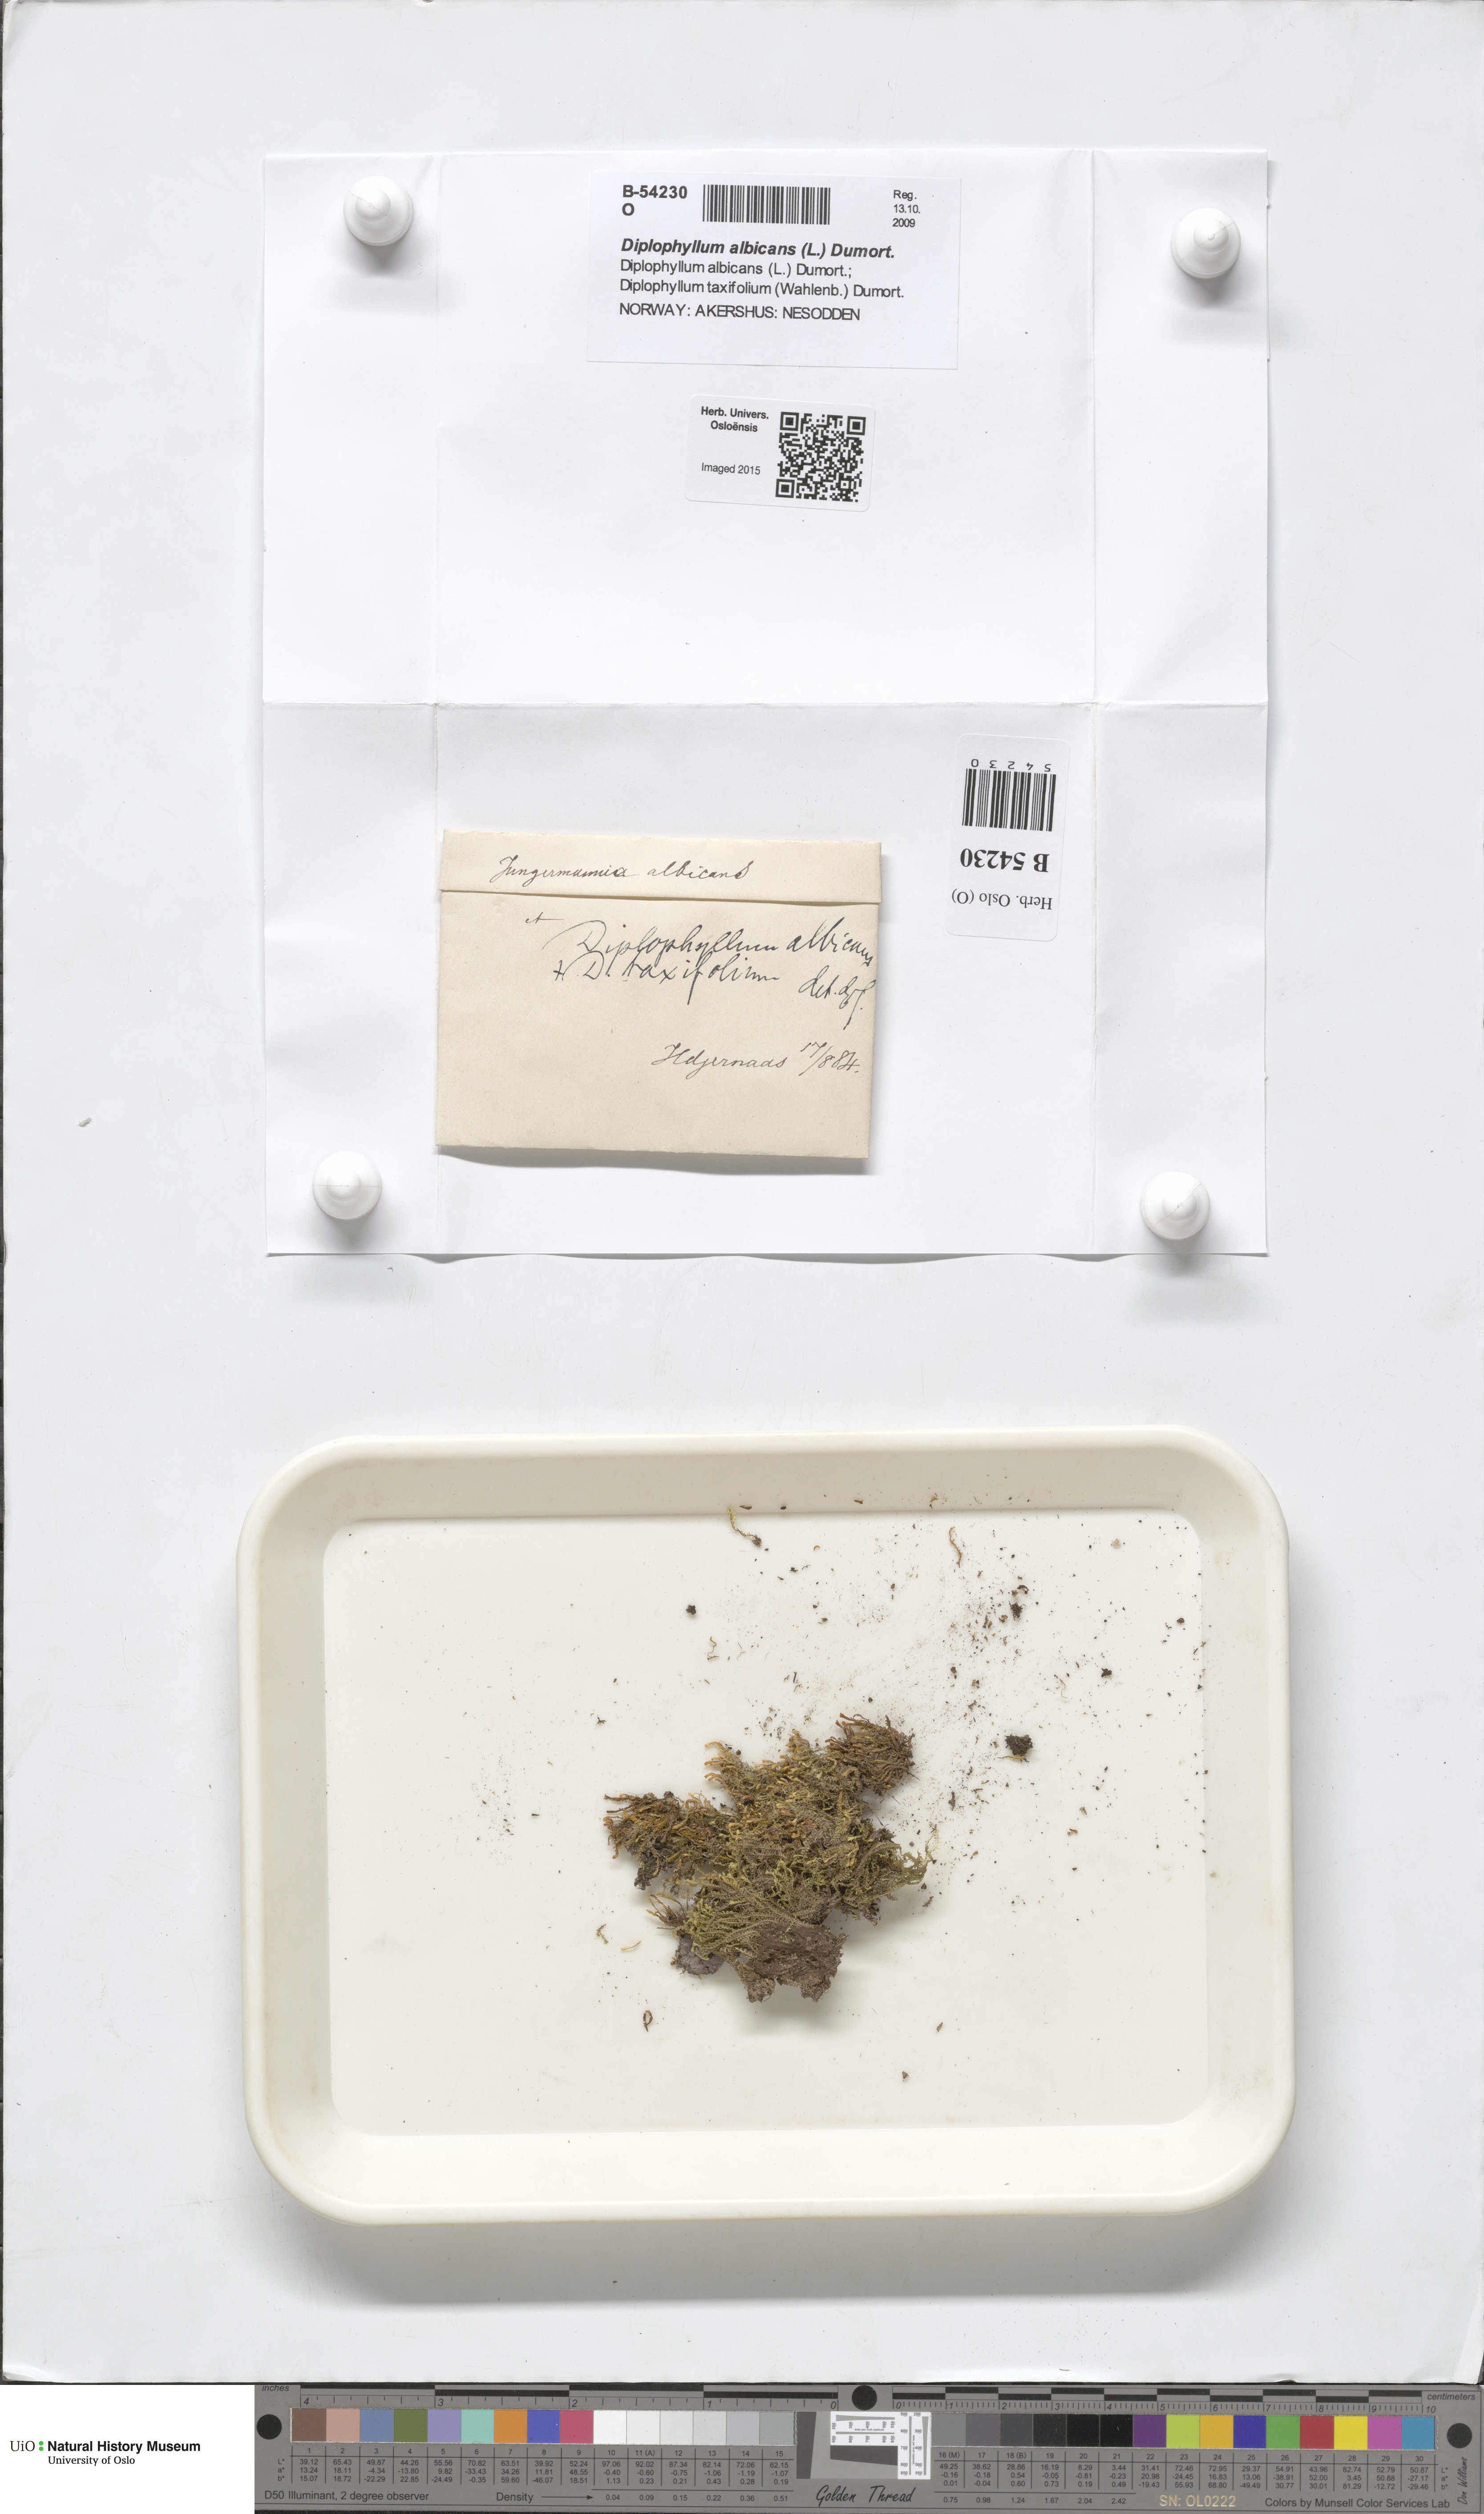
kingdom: Plantae
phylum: Marchantiophyta
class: Jungermanniopsida
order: Jungermanniales
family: Scapaniaceae
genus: Diplophyllum
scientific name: Diplophyllum albicans
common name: White earwort
